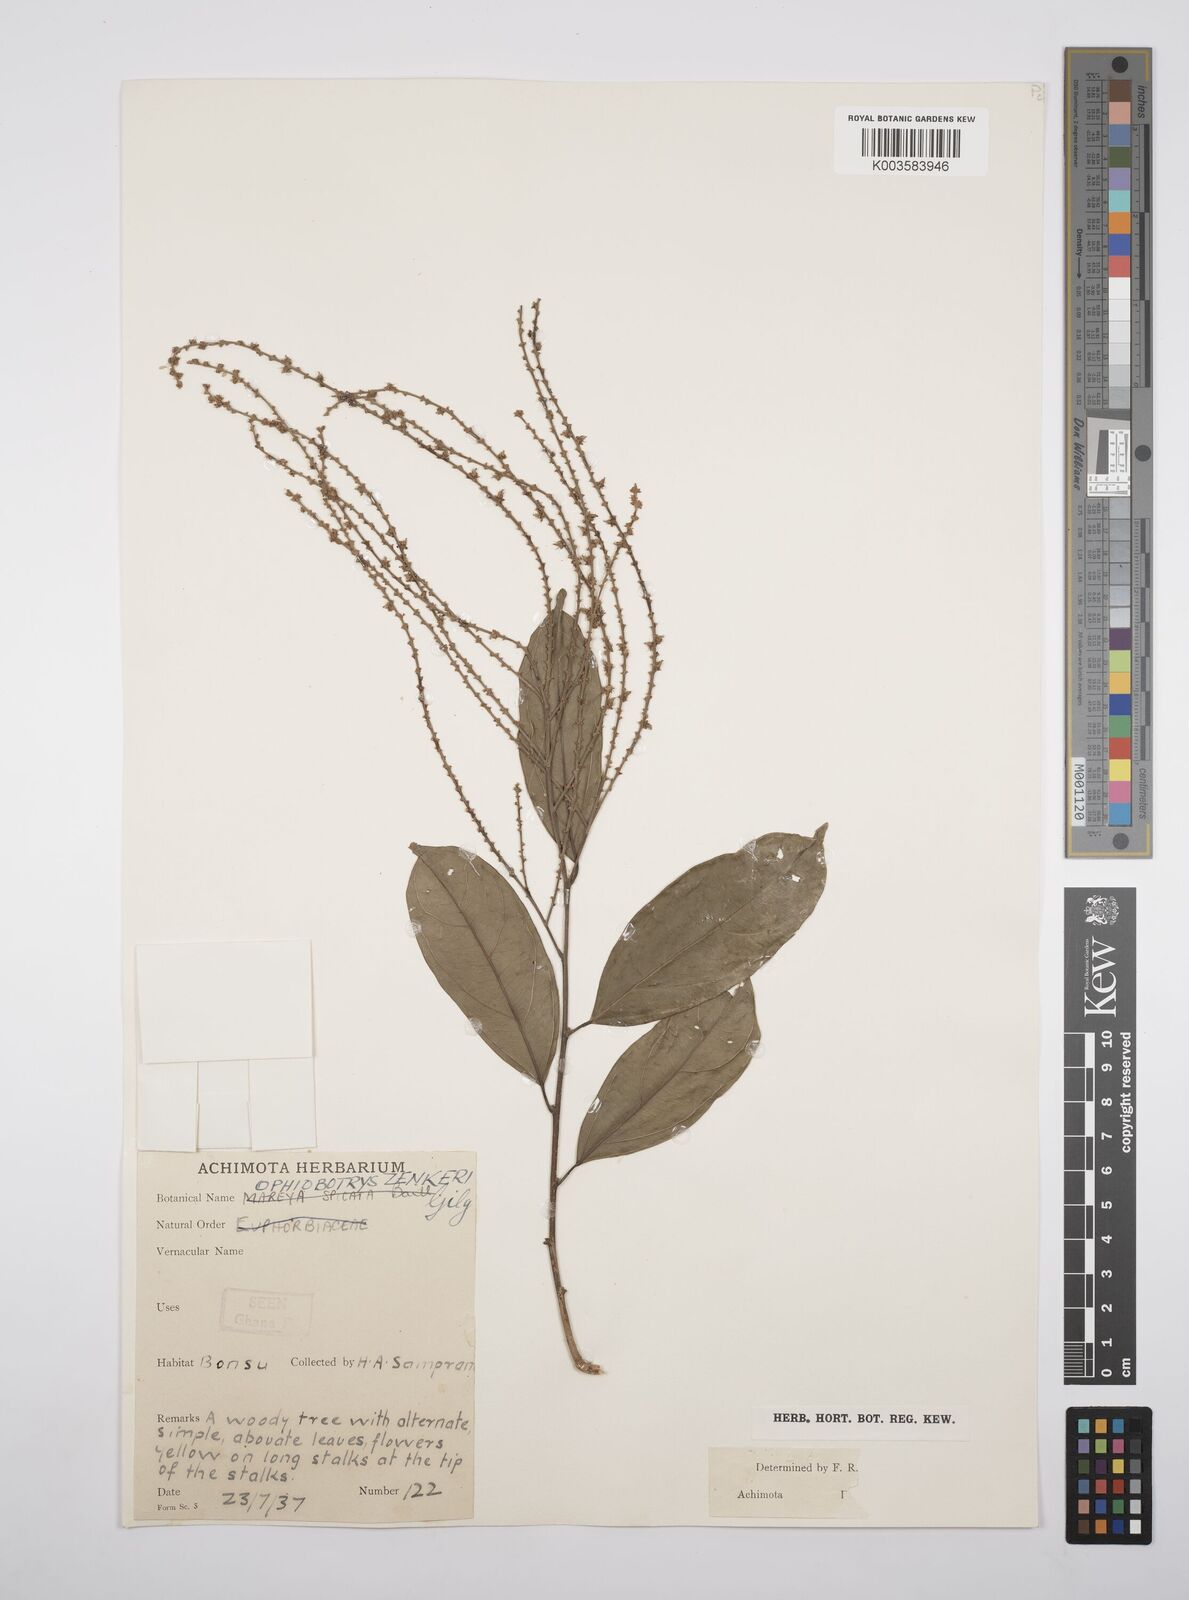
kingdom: Plantae
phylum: Tracheophyta
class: Magnoliopsida
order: Malpighiales
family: Salicaceae
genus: Ophiobotrys
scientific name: Ophiobotrys zenkeri
